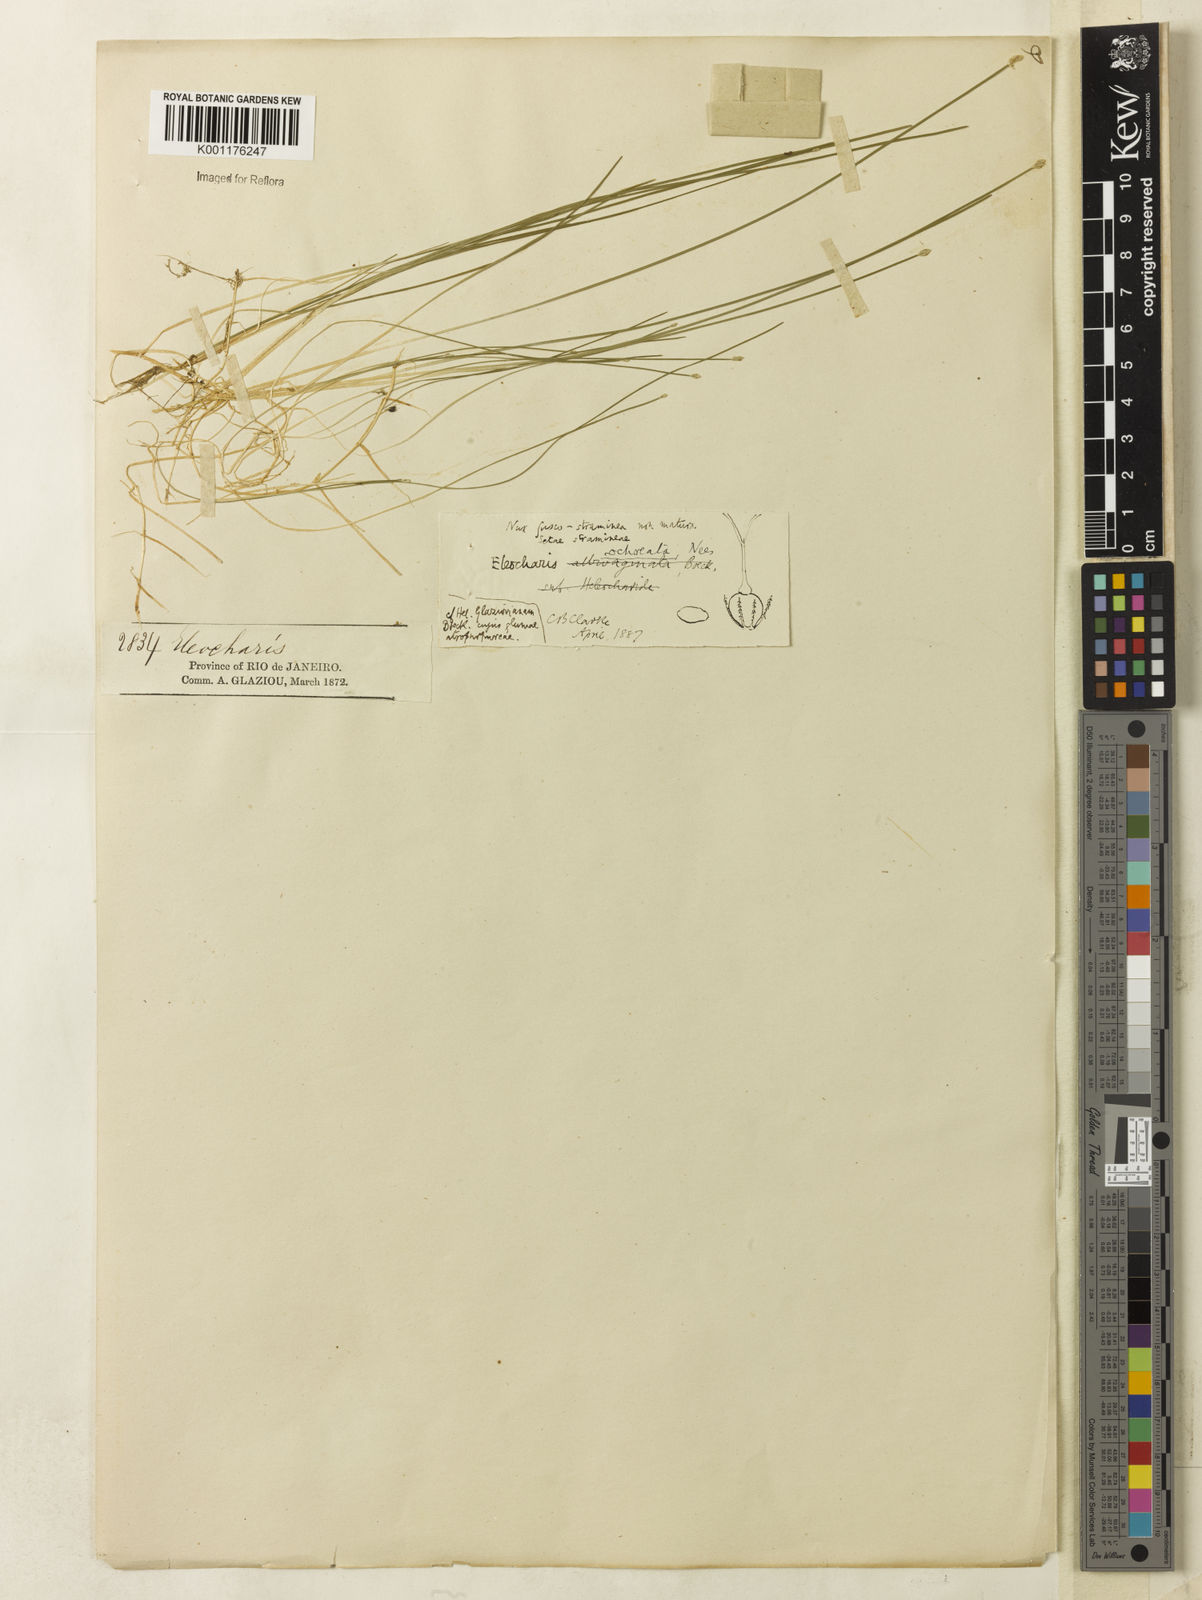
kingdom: Plantae
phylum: Tracheophyta
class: Liliopsida
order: Poales
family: Cyperaceae
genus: Eleocharis
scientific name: Eleocharis flavescens
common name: Yellow spikerush
